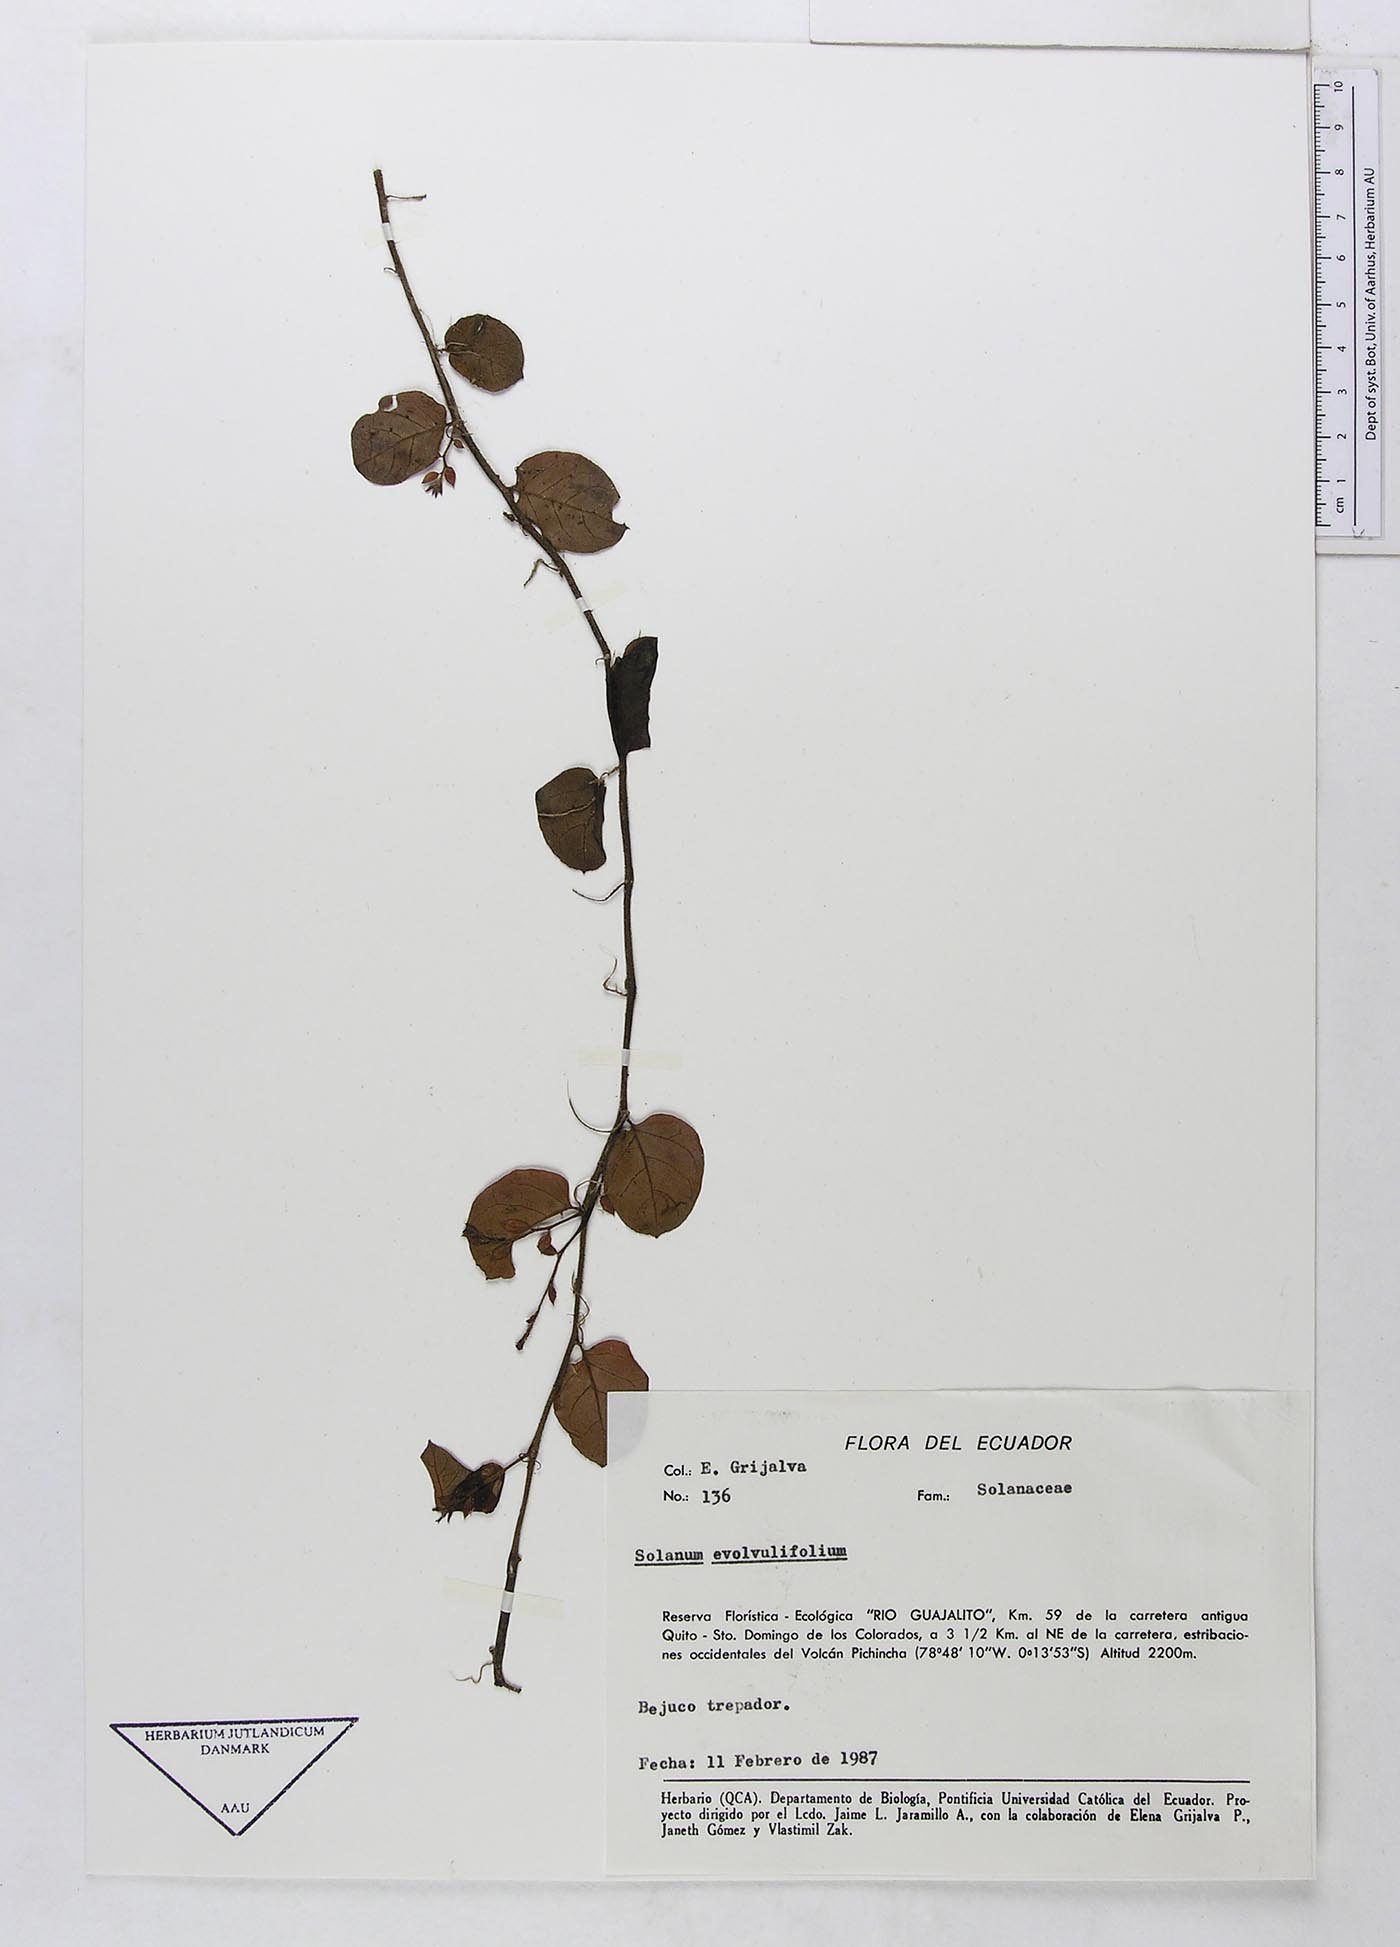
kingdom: Plantae
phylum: Tracheophyta
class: Magnoliopsida
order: Solanales
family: Solanaceae
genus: Solanum
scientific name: Solanum evolvulifolium
